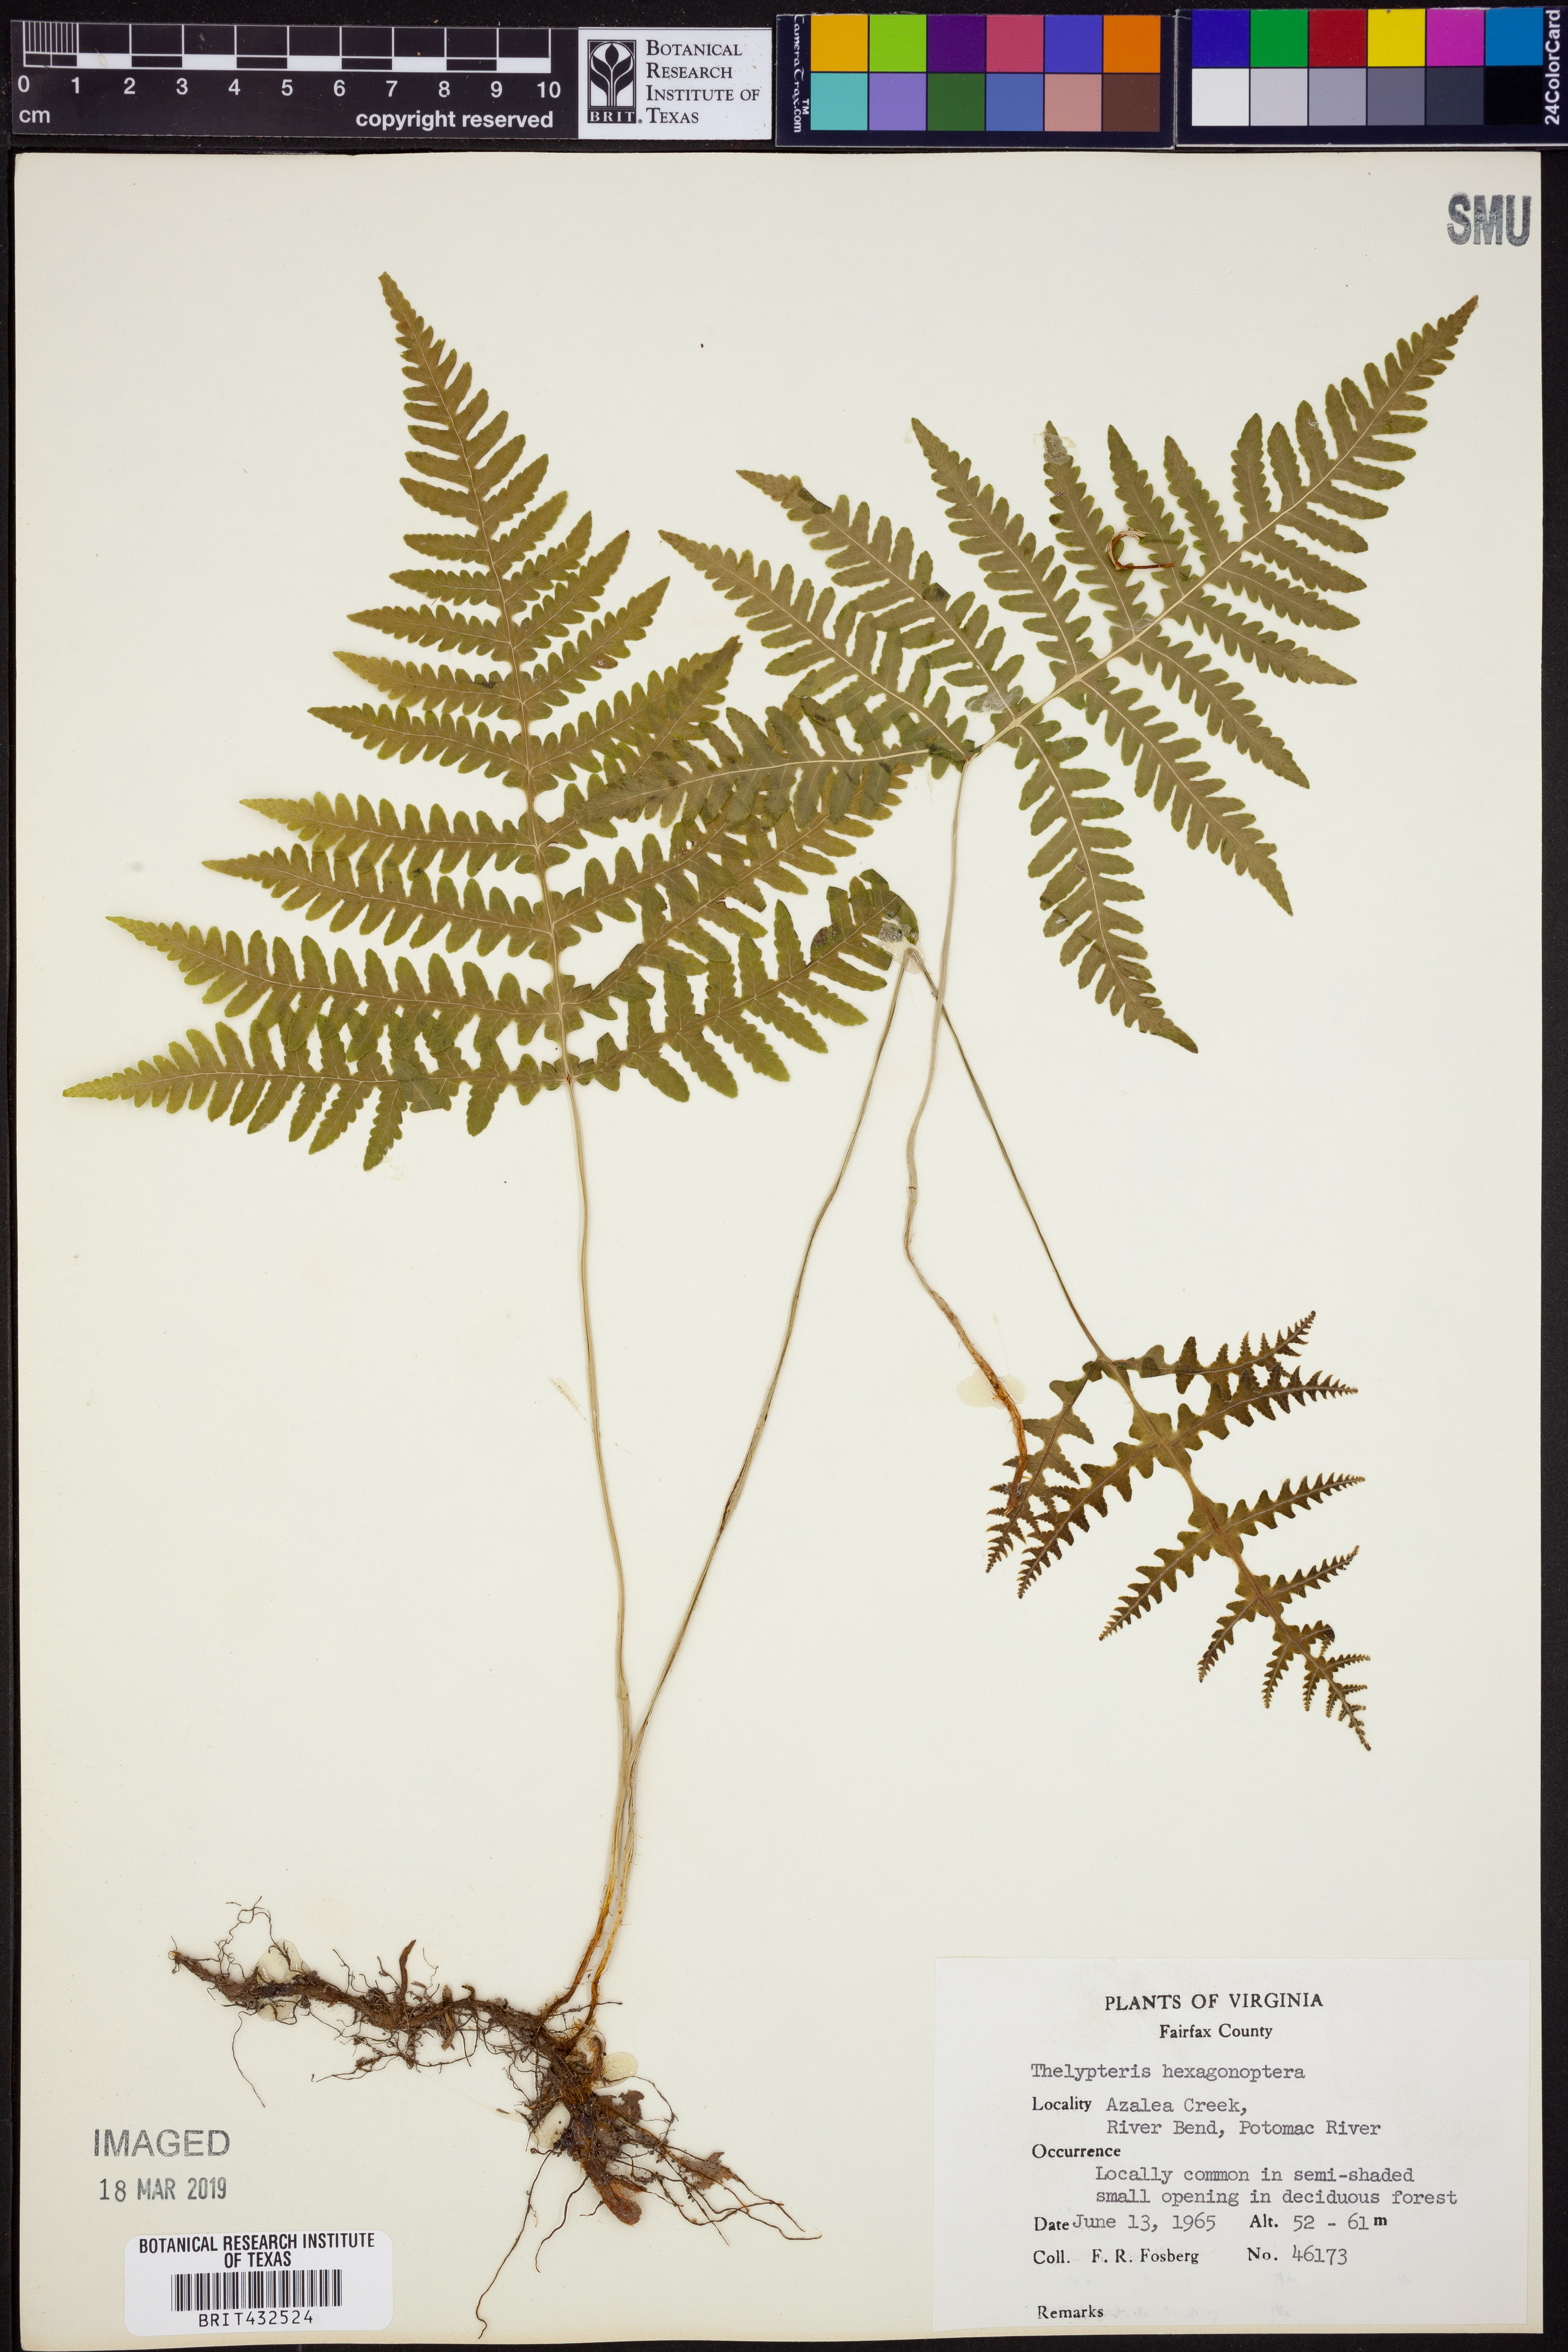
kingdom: Plantae
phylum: Tracheophyta
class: Polypodiopsida
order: Polypodiales
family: Thelypteridaceae
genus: Phegopteris
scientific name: Phegopteris hexagonoptera
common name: Broad beech fern
